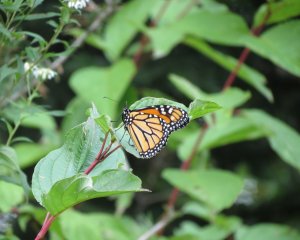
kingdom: Animalia
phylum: Arthropoda
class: Insecta
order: Lepidoptera
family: Nymphalidae
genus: Danaus
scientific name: Danaus plexippus
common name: Monarch
